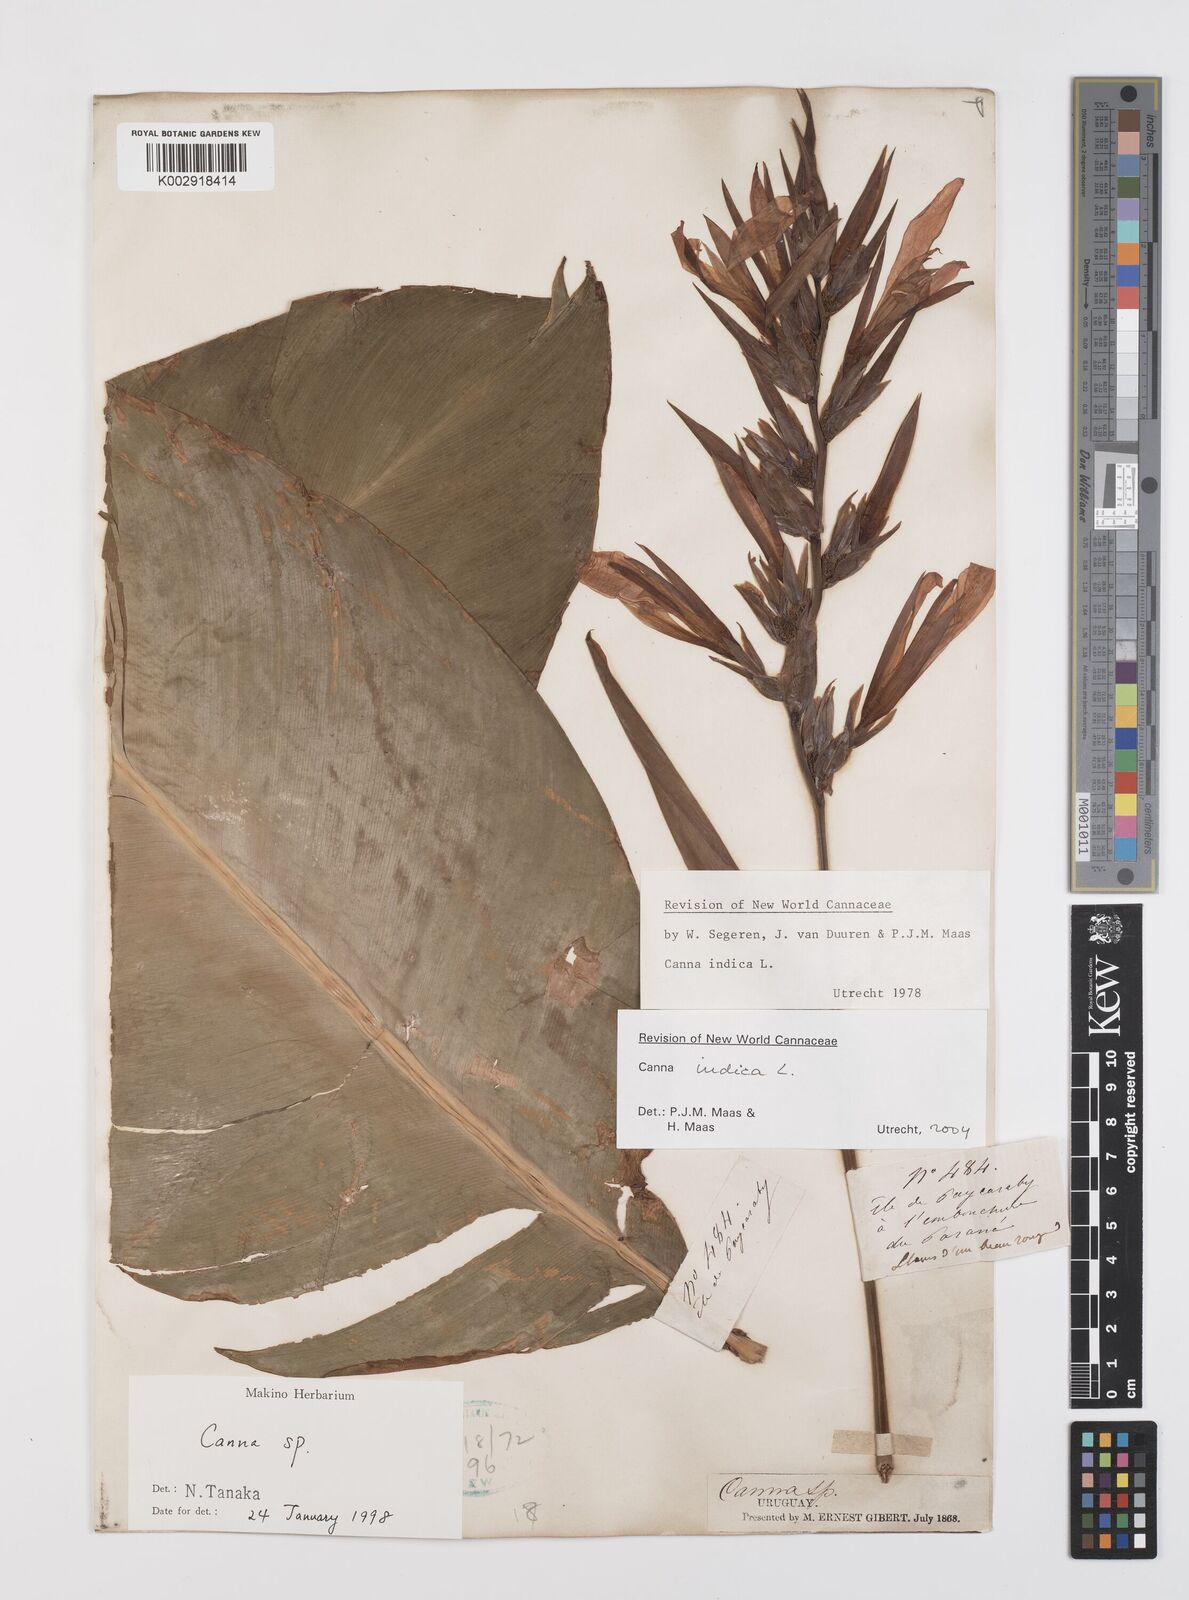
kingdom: Plantae
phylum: Tracheophyta
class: Liliopsida
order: Zingiberales
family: Cannaceae
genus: Canna
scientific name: Canna indica
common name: Indian shot
